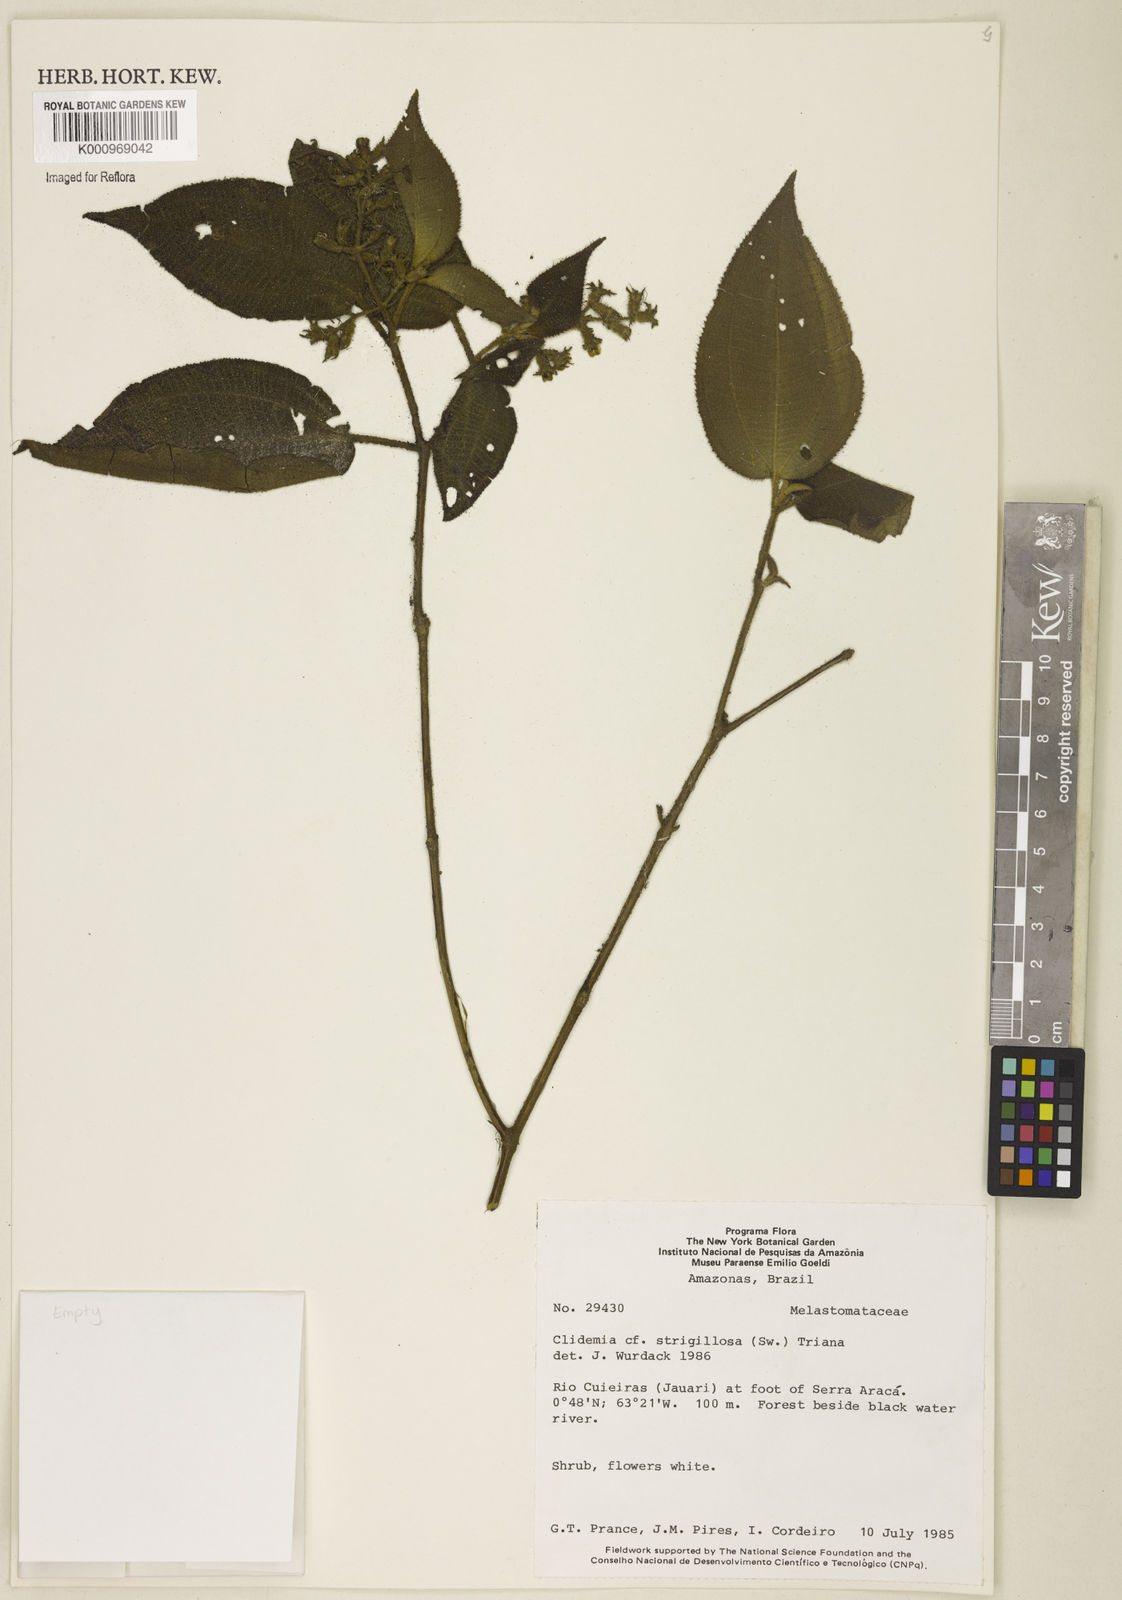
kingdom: Plantae
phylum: Tracheophyta
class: Magnoliopsida
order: Myrtales
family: Melastomataceae
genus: Miconia
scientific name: Miconia strigillosa
